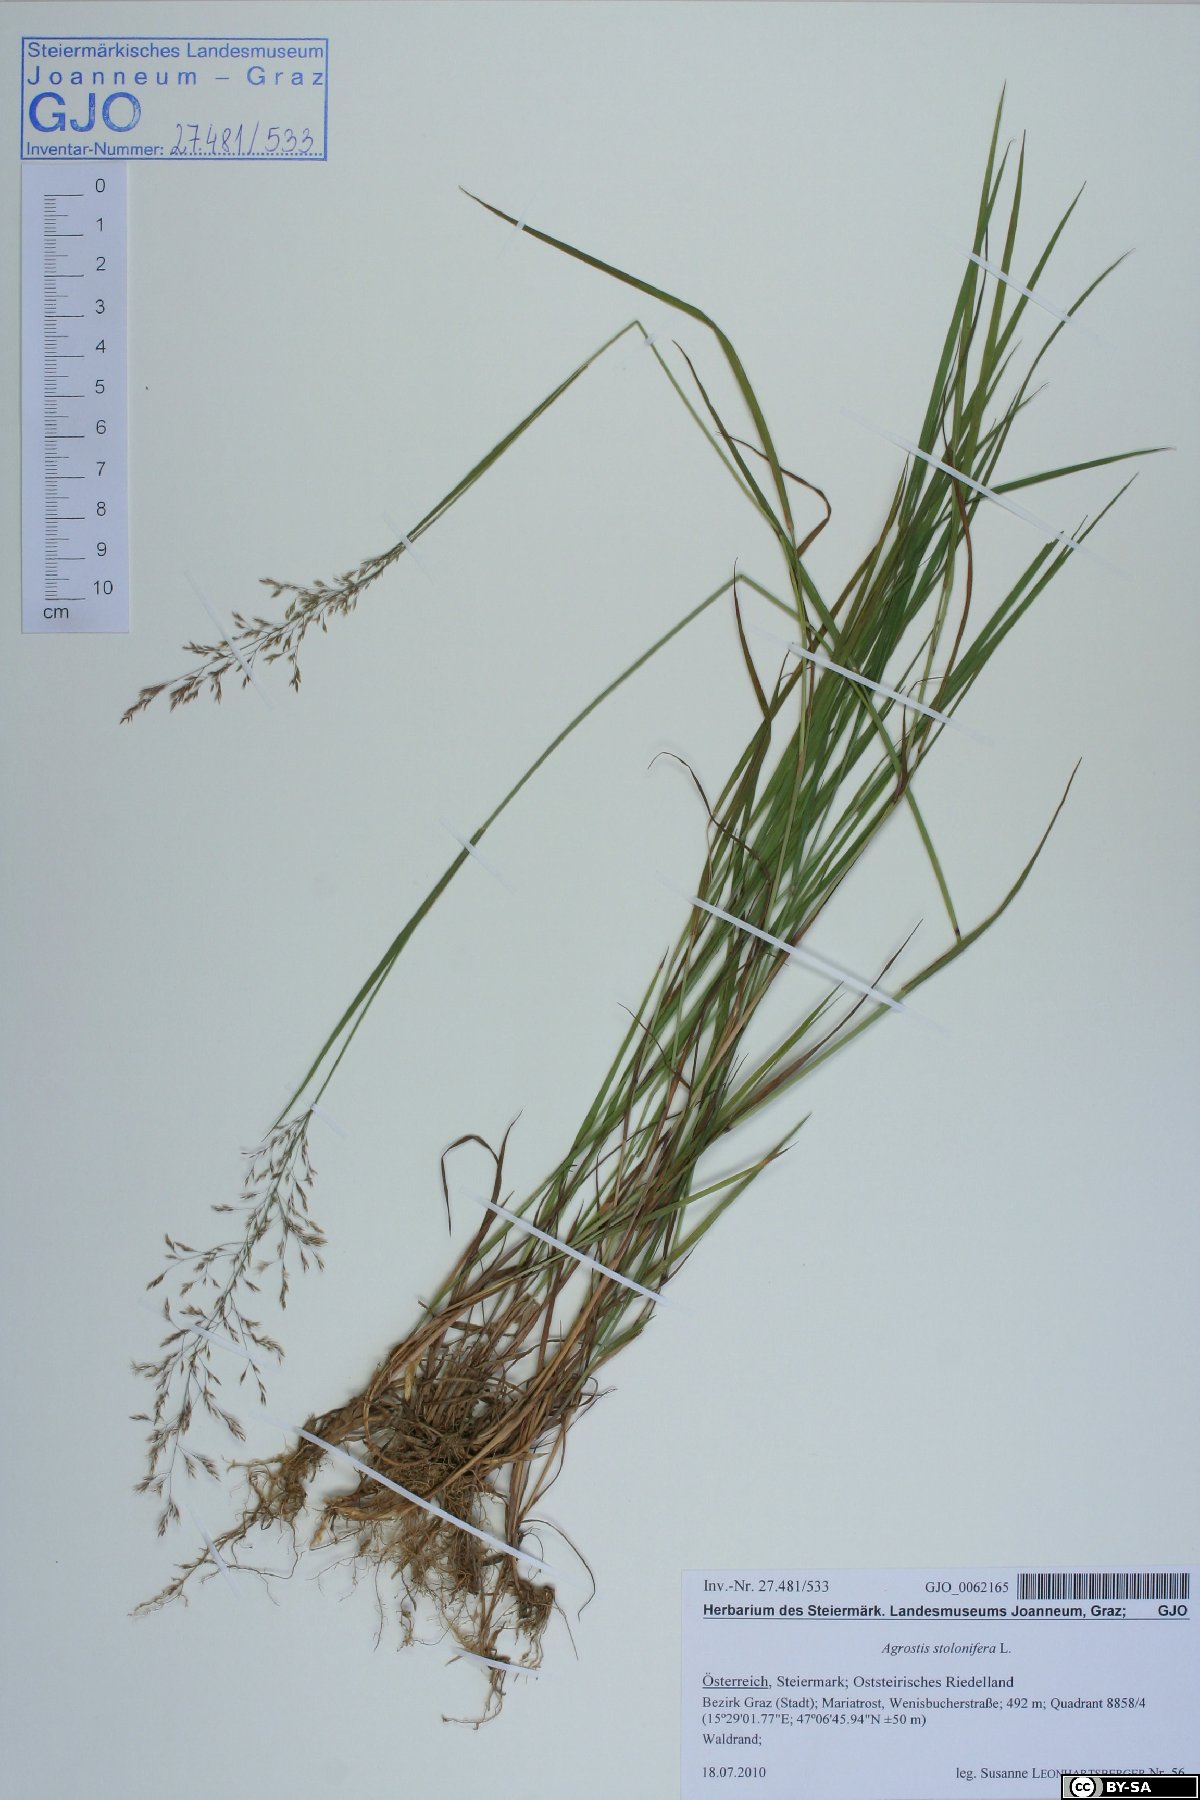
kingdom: Plantae
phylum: Tracheophyta
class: Liliopsida
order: Poales
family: Poaceae
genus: Agrostis
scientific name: Agrostis stolonifera
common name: Creeping bentgrass
